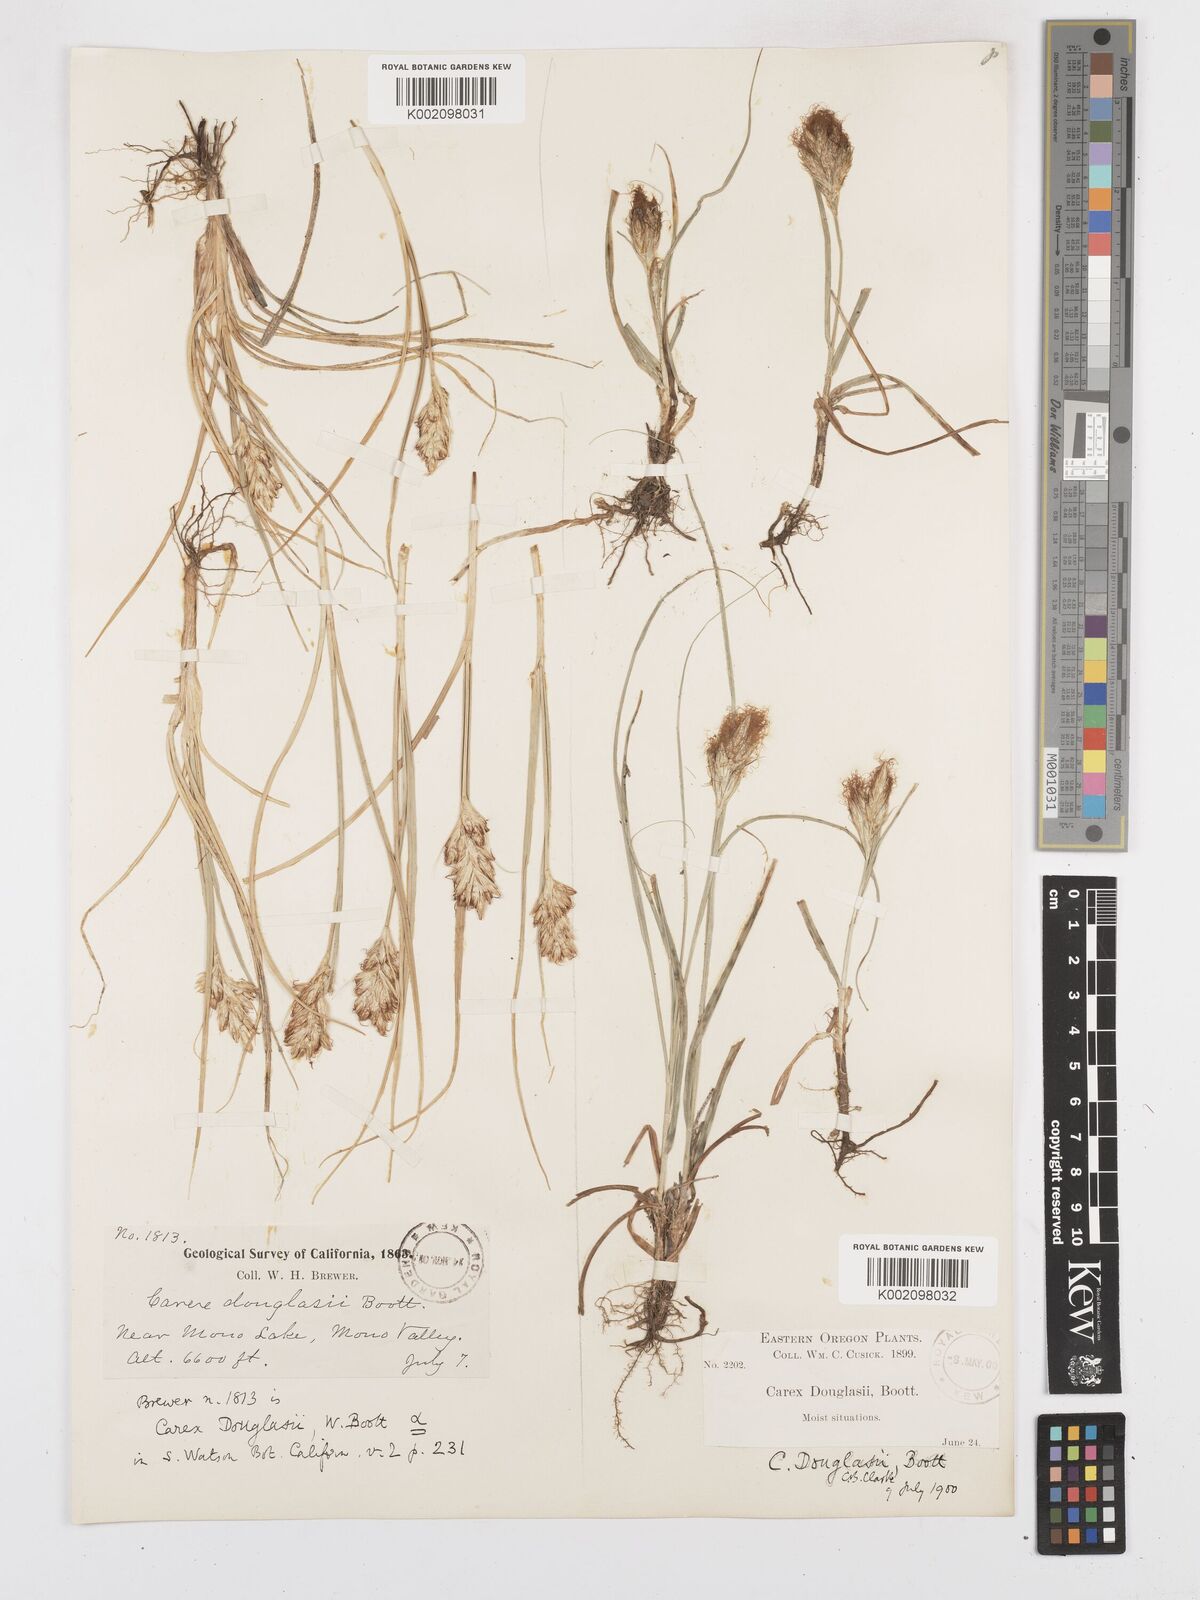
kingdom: Plantae
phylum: Tracheophyta
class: Liliopsida
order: Poales
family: Cyperaceae
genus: Carex
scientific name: Carex douglasii
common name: Douglas' sedge
